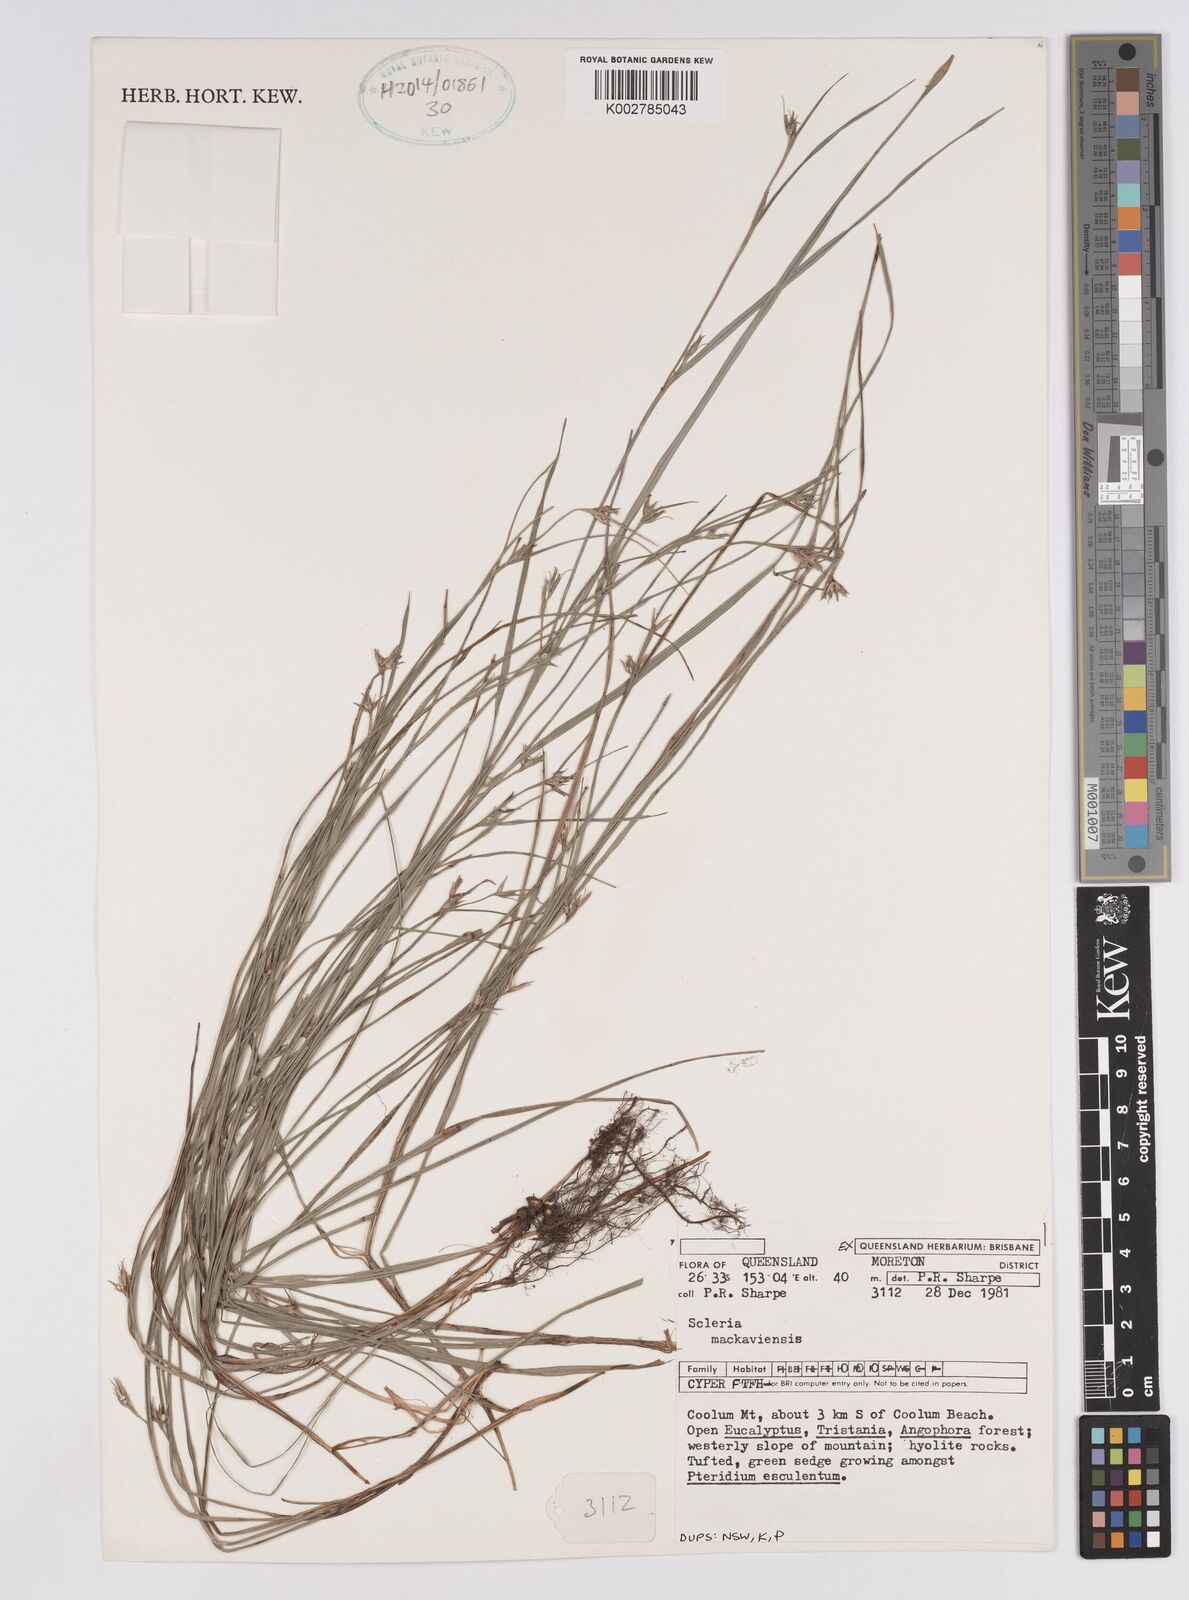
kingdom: Plantae
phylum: Tracheophyta
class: Liliopsida
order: Poales
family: Cyperaceae
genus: Scleria
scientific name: Scleria mackaviensis
